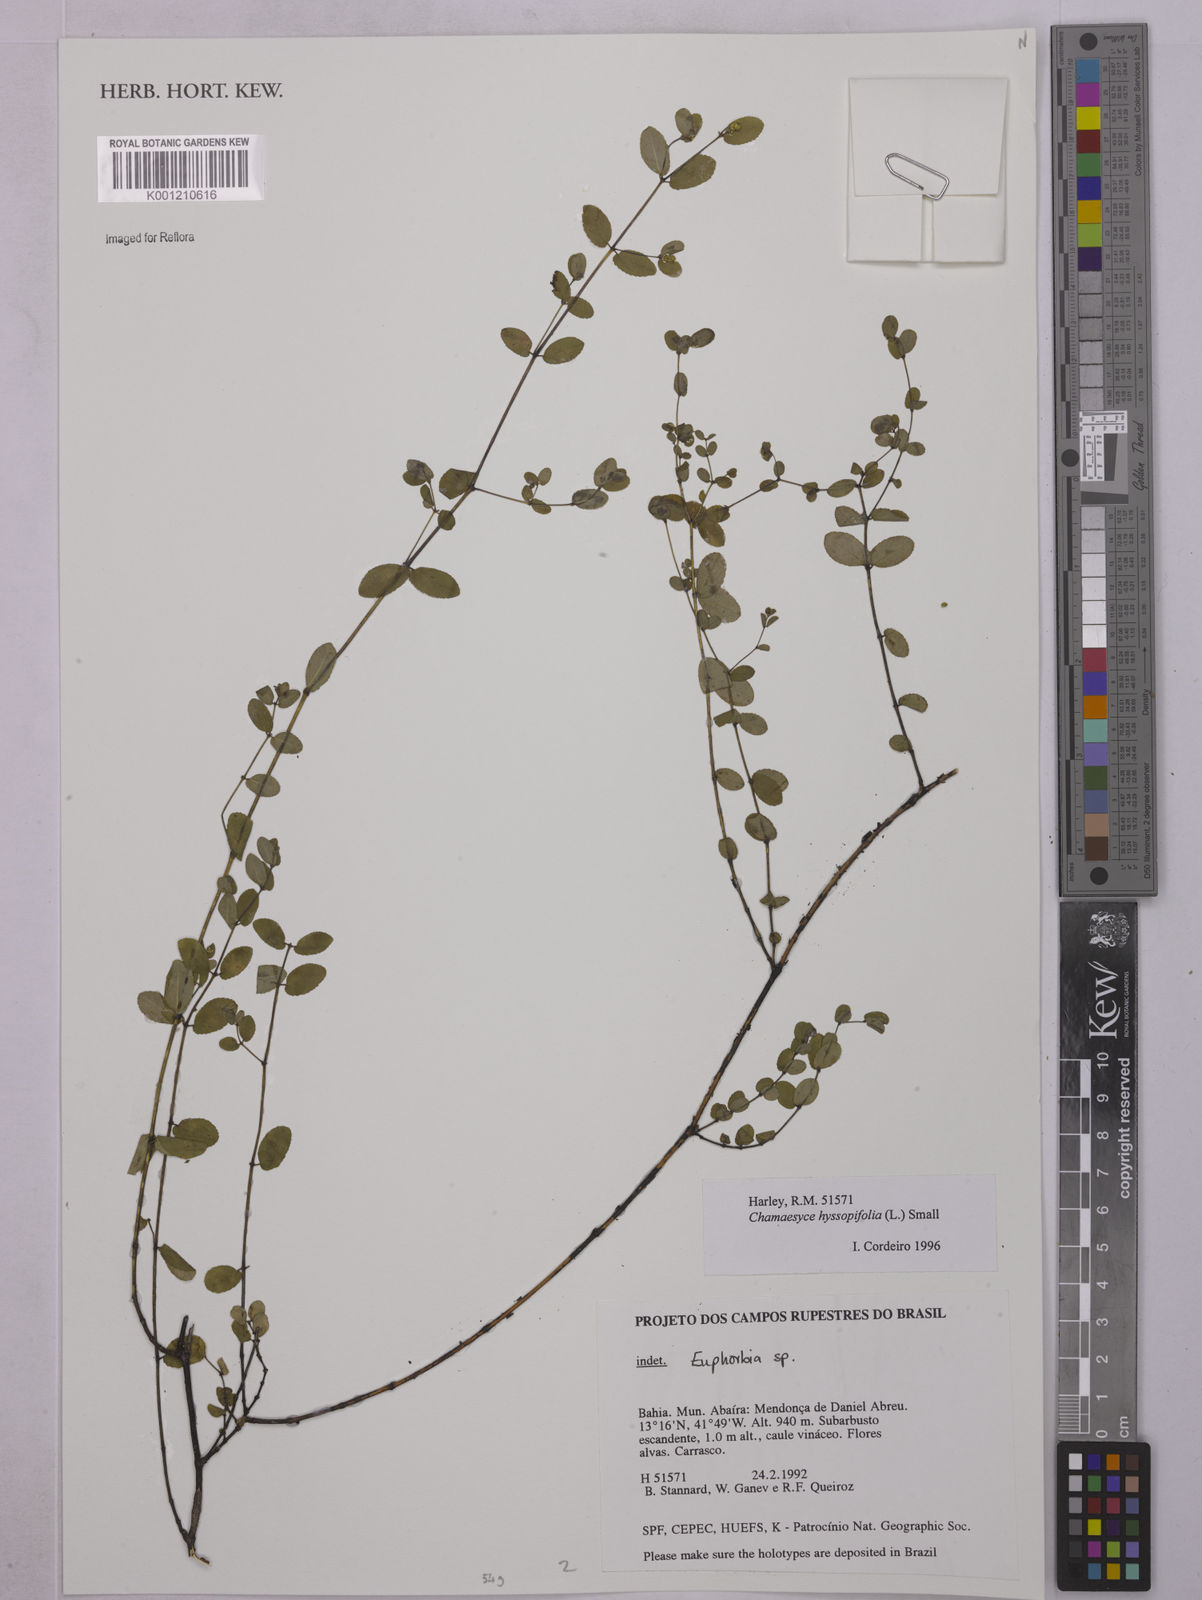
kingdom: Plantae
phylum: Tracheophyta
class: Magnoliopsida
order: Malpighiales
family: Euphorbiaceae
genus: Euphorbia
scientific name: Euphorbia hyssopifolia
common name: Hyssopleaf sandmat
